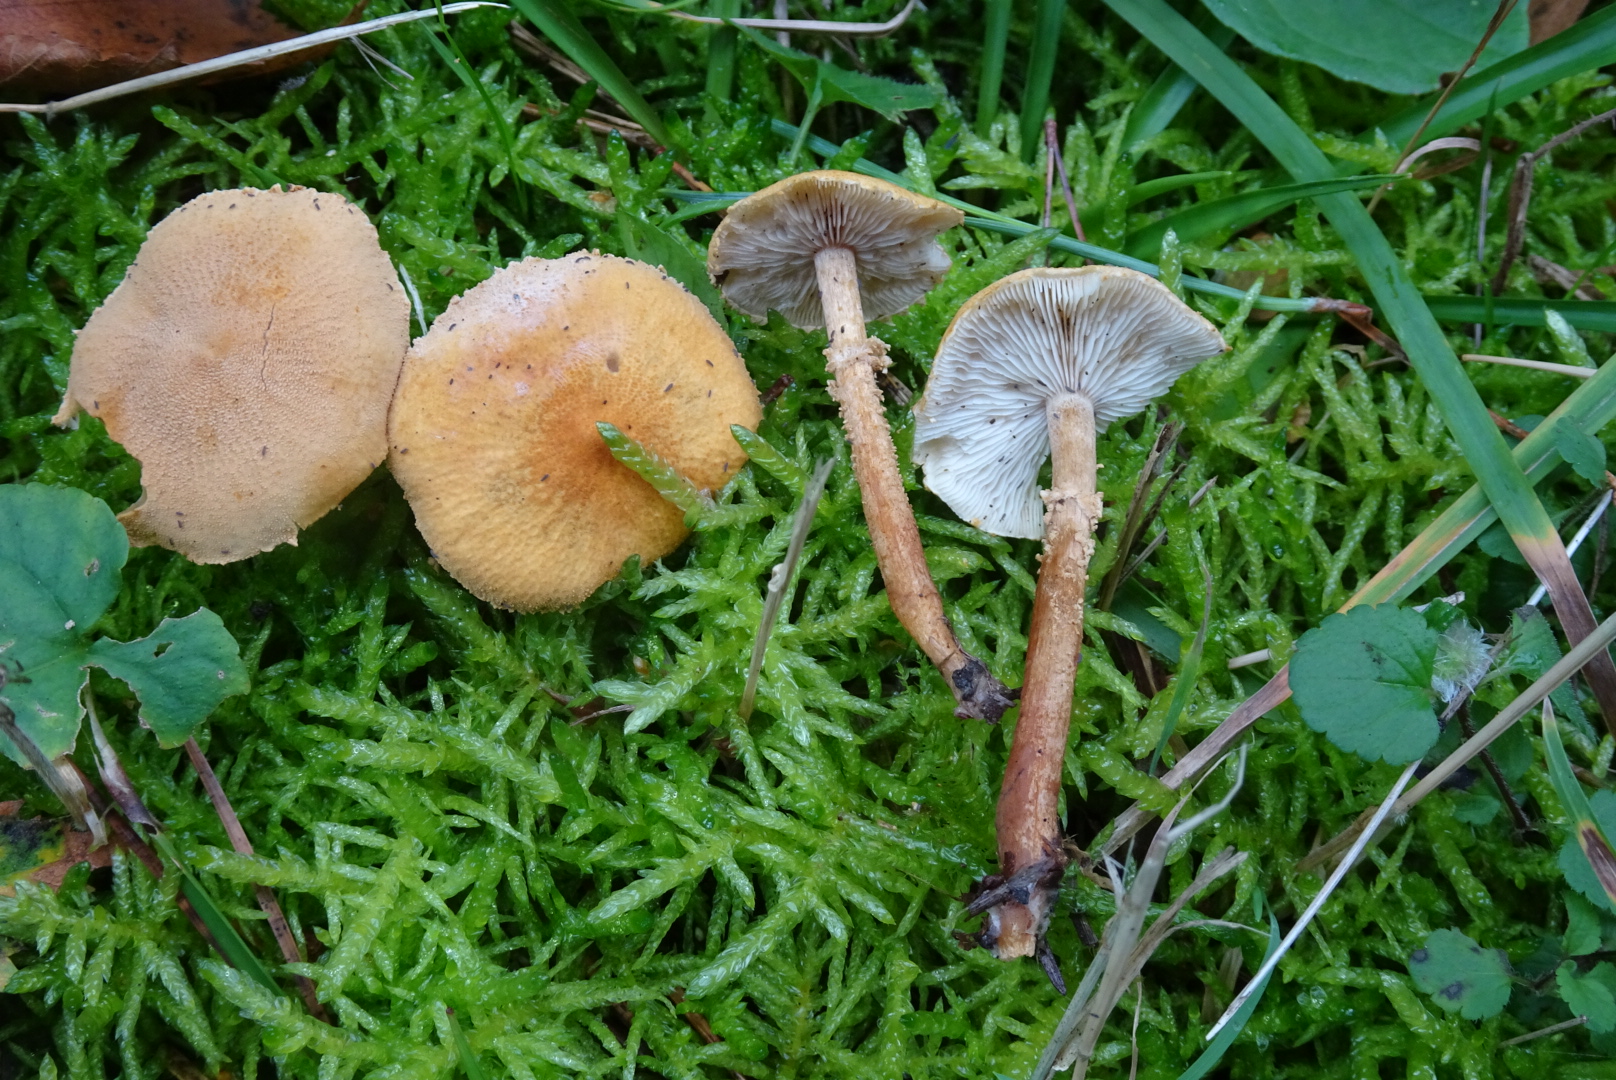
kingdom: Fungi
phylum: Basidiomycota
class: Agaricomycetes
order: Agaricales
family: Tricholomataceae
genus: Cystoderma
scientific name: Cystoderma amianthinum
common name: okkergul grynhat
